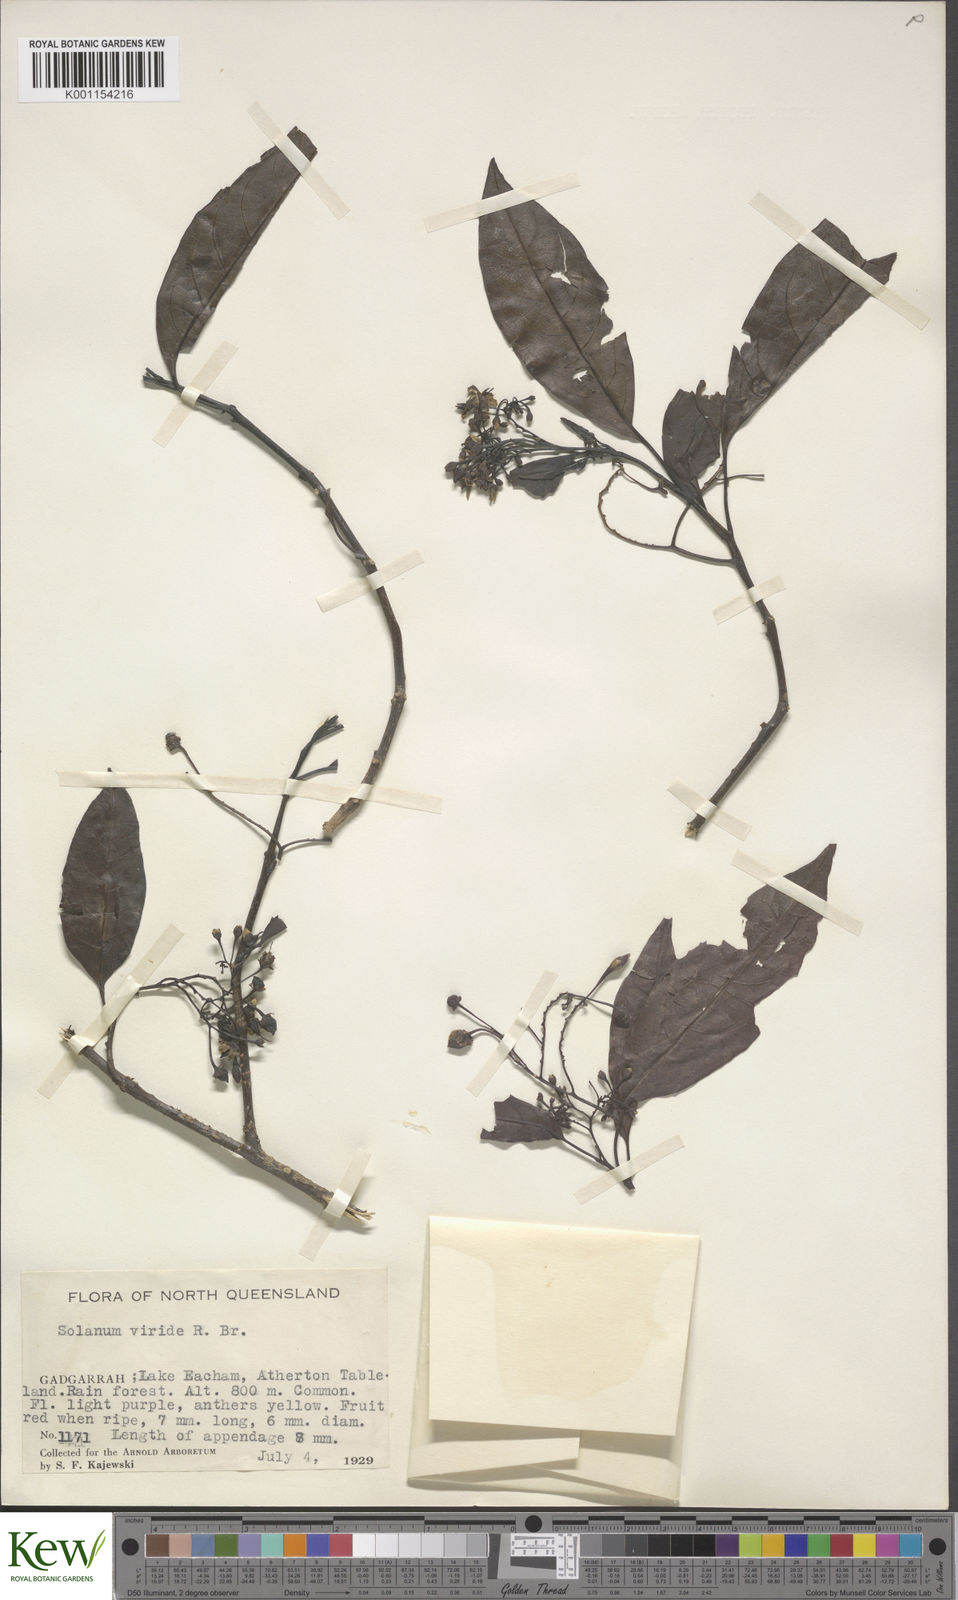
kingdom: Plantae
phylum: Tracheophyta
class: Magnoliopsida
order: Solanales
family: Solanaceae
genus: Solanum
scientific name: Solanum viridifolium
